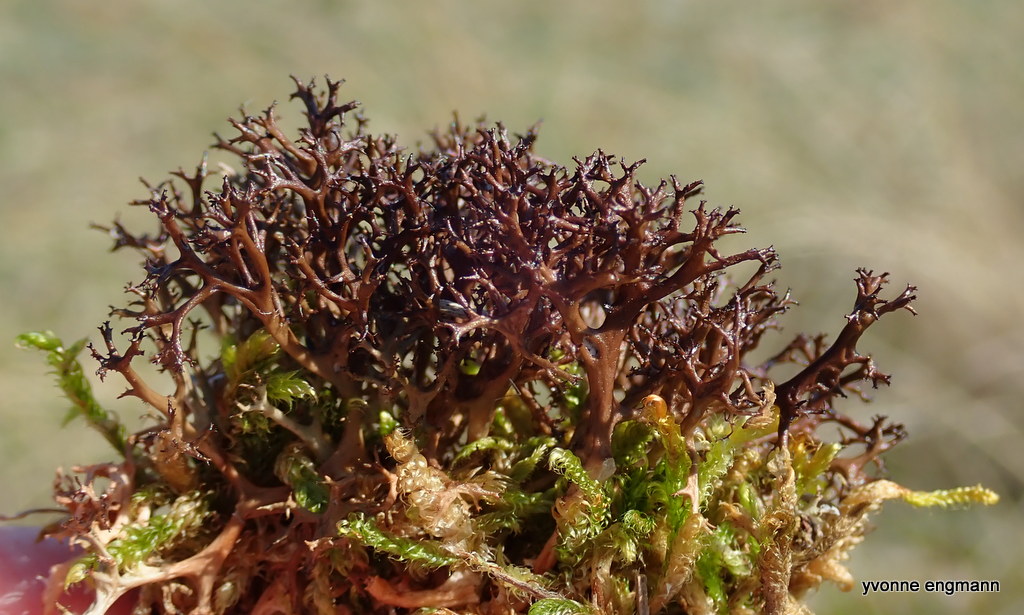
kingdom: Fungi
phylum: Ascomycota
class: Lecanoromycetes
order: Lecanorales
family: Parmeliaceae
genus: Cetraria
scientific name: Cetraria aculeata
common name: grubet tjørnelav
